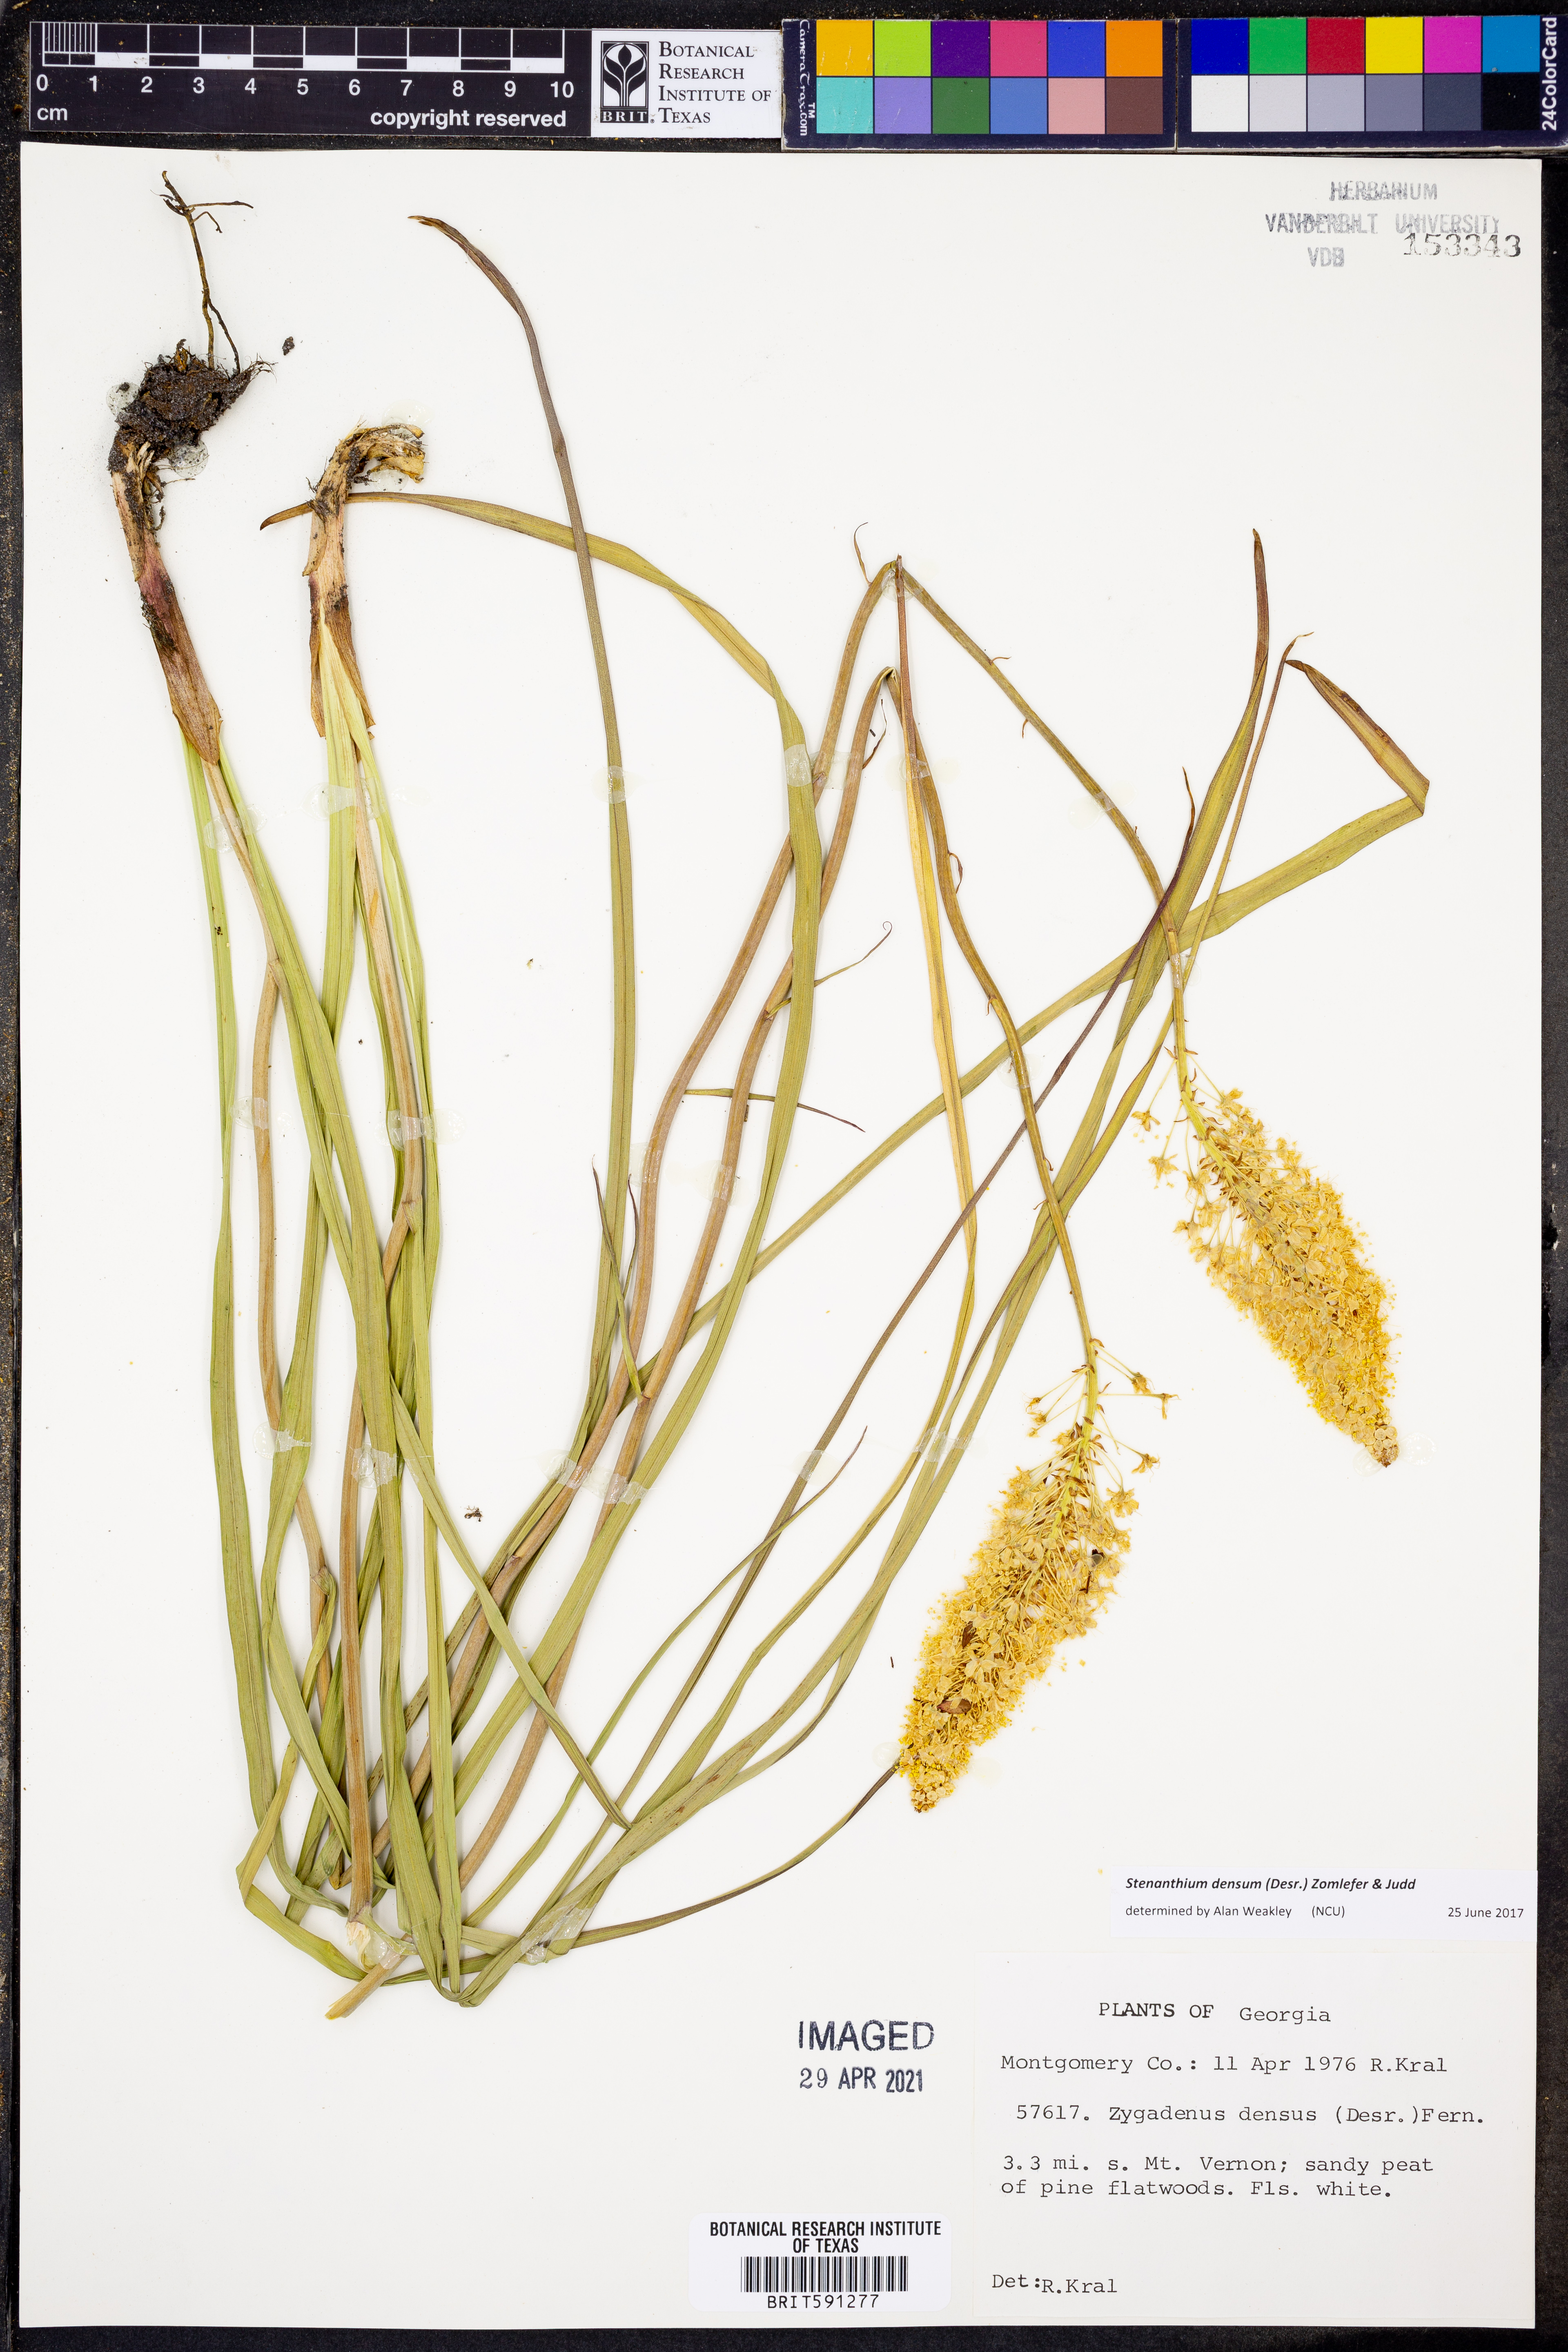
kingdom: Plantae
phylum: Tracheophyta
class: Liliopsida
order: Liliales
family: Melanthiaceae
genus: Stenanthium
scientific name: Stenanthium densum
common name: Crow-poison
